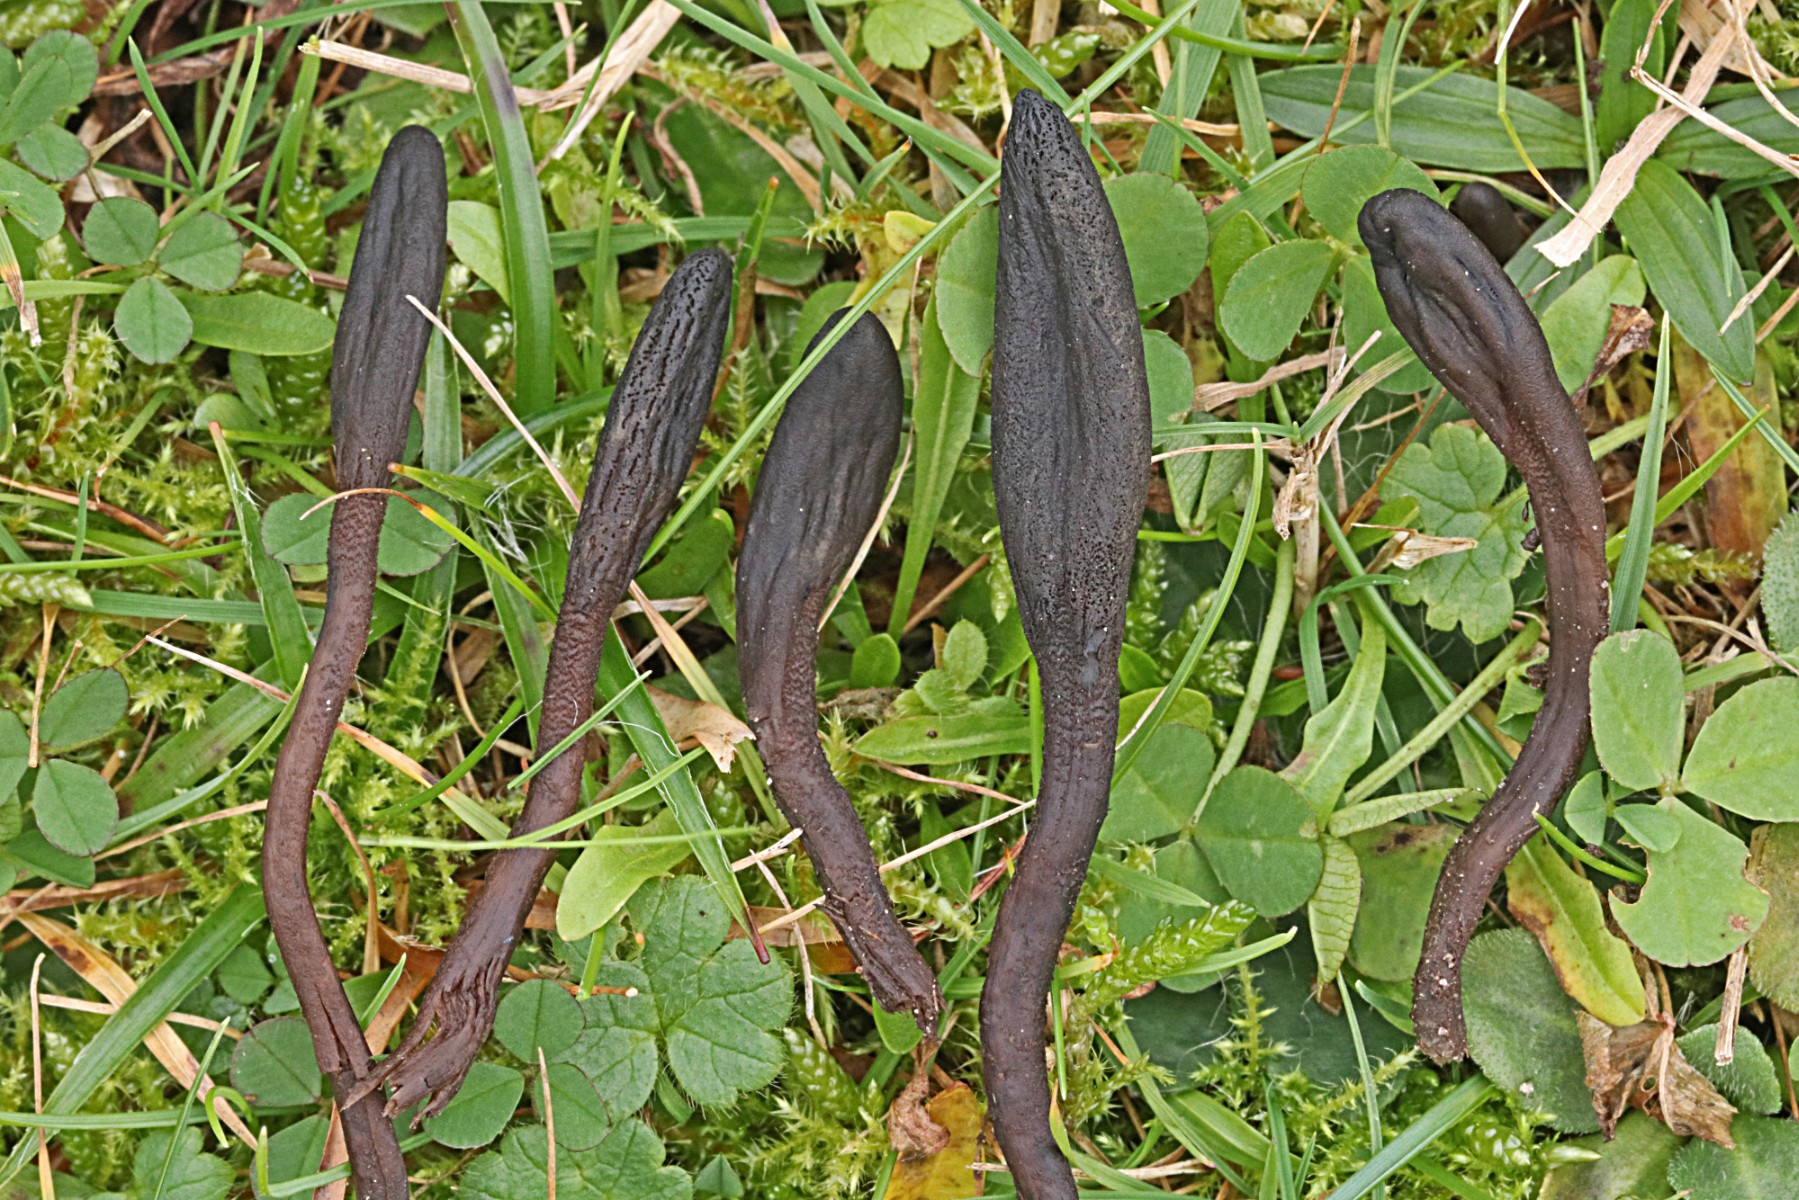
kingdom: Fungi
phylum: Ascomycota
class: Geoglossomycetes
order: Geoglossales
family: Geoglossaceae
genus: Geoglossum
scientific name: Geoglossum fallax
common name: småskællet jordtunge
